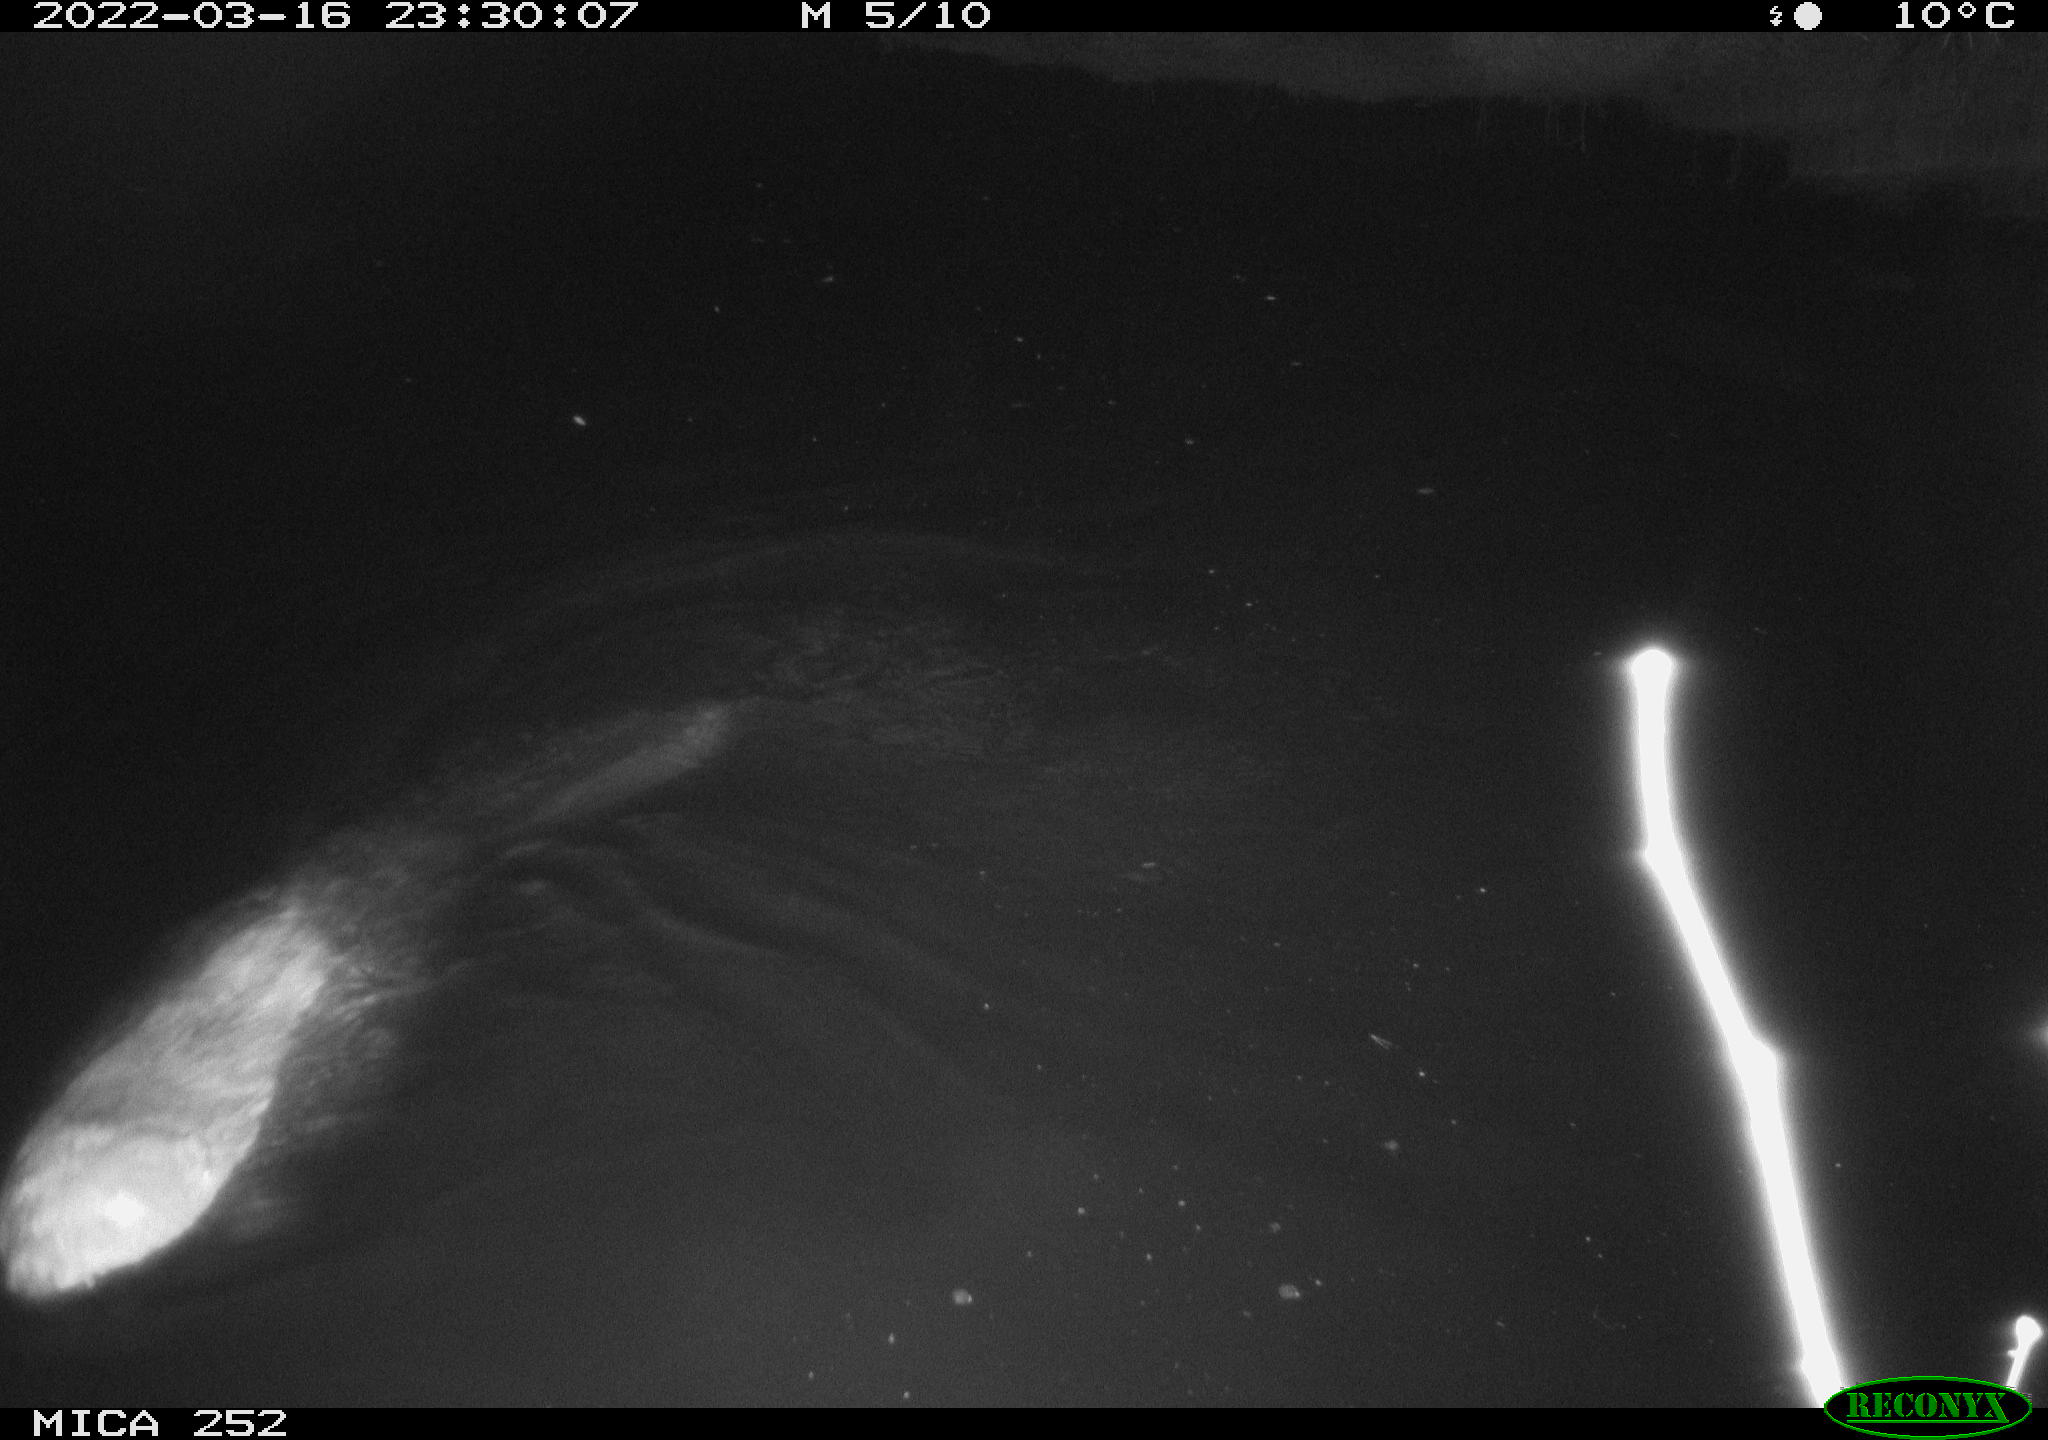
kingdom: Animalia
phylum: Chordata
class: Mammalia
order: Rodentia
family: Castoridae
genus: Castor
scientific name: Castor fiber
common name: Eurasian beaver
